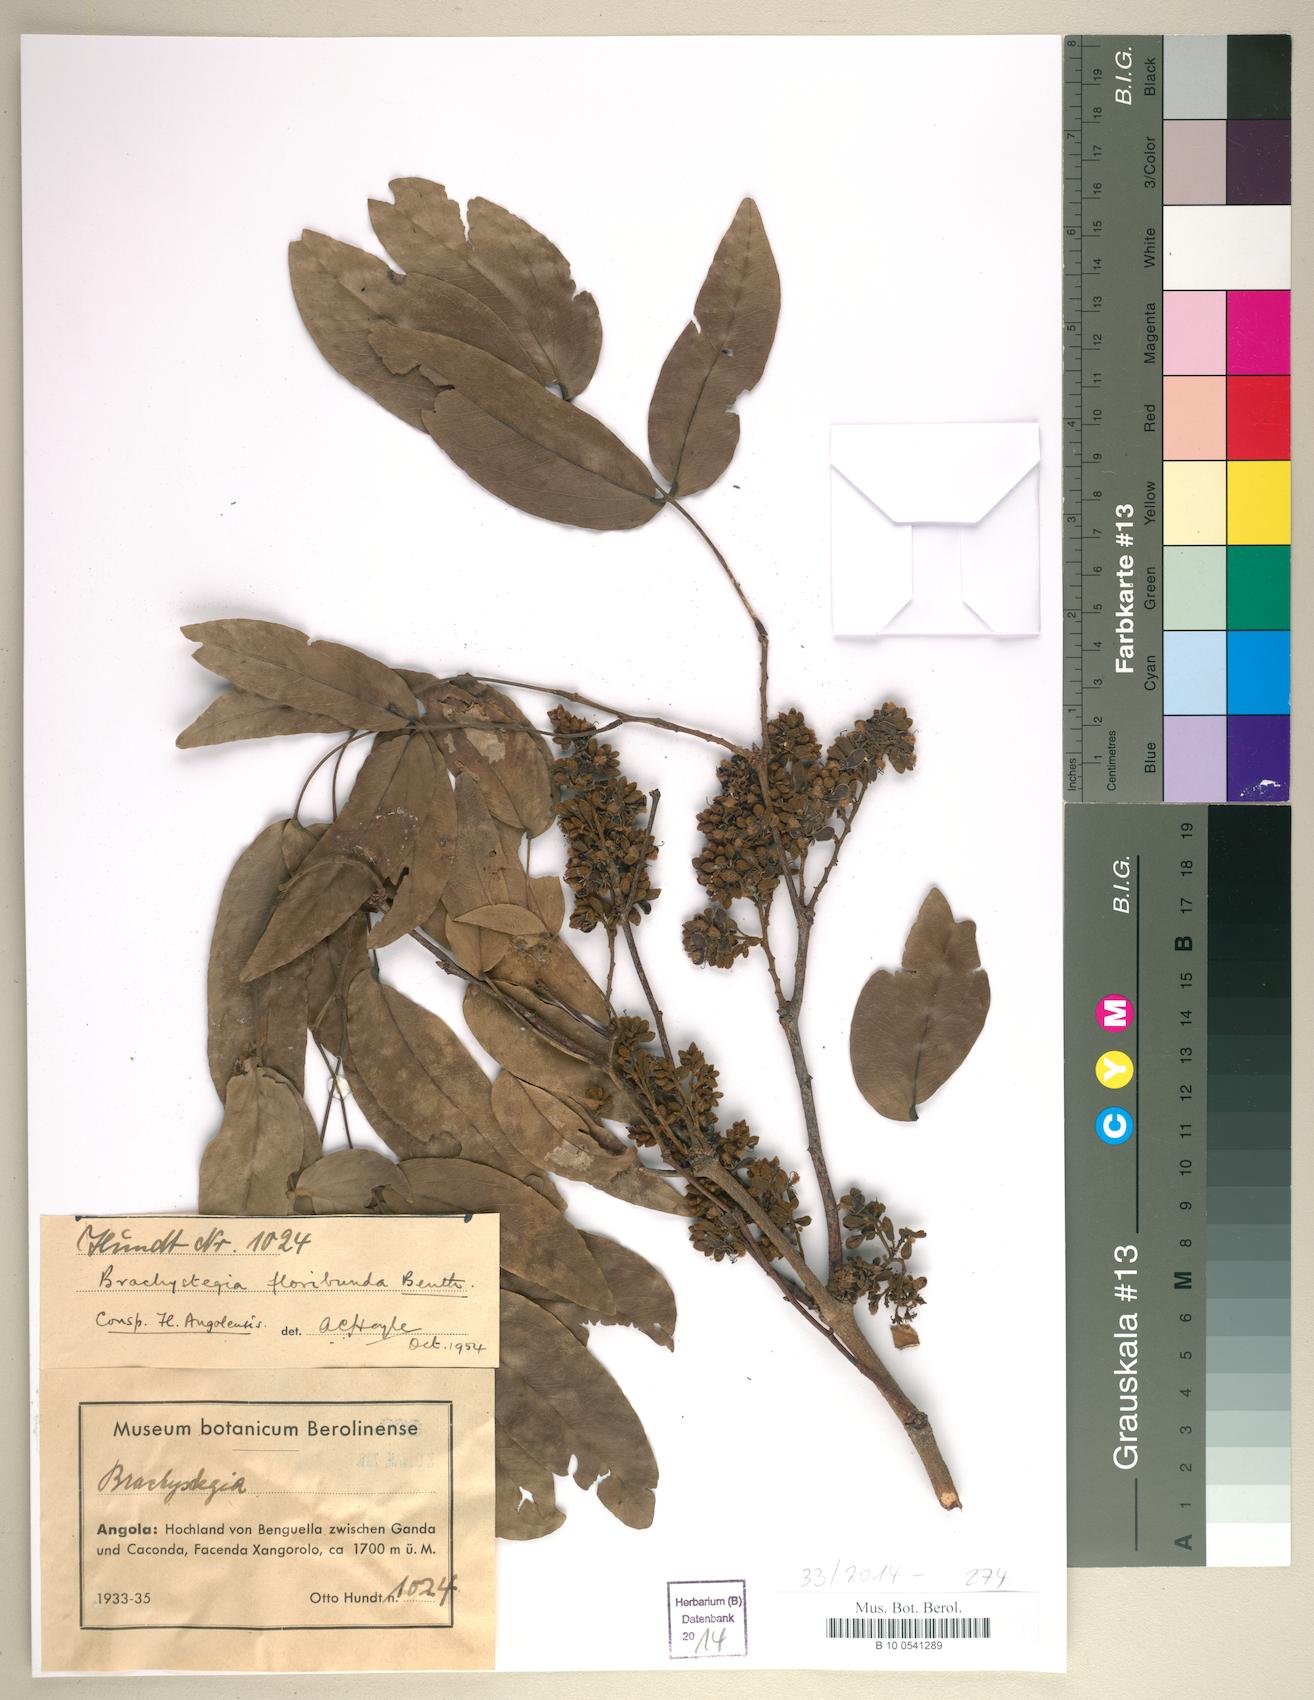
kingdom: Plantae
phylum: Tracheophyta
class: Magnoliopsida
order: Fabales
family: Fabaceae
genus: Brachystegia
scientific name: Brachystegia floribunda
